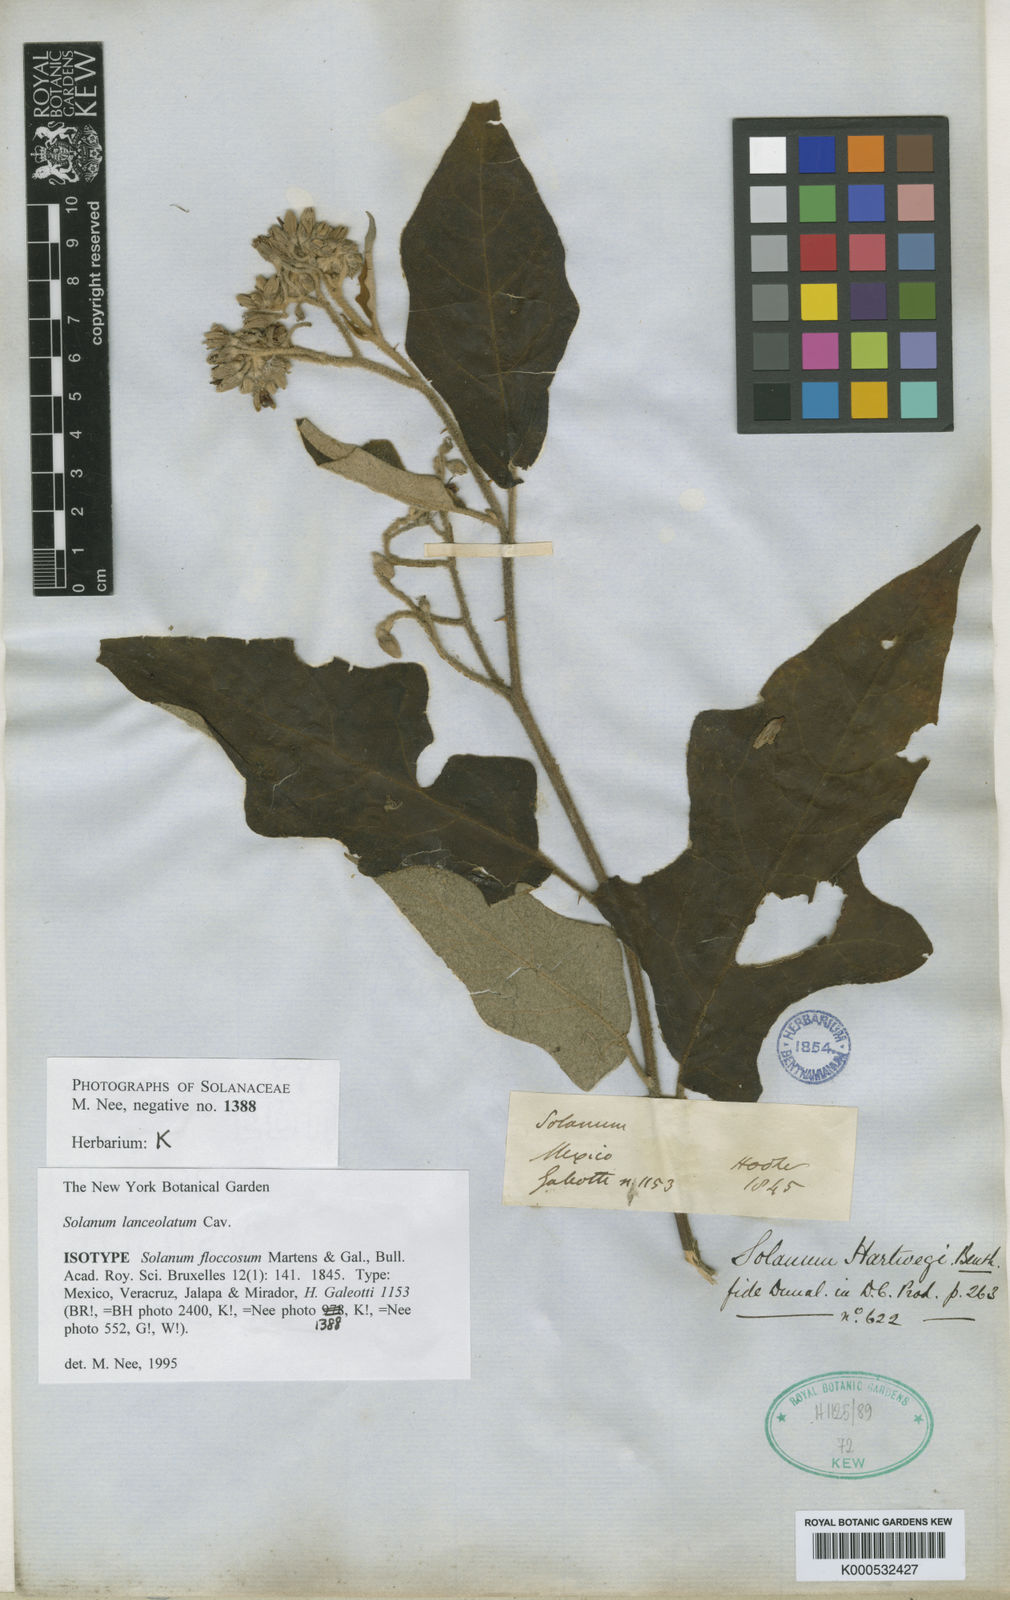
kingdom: Plantae
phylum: Tracheophyta
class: Magnoliopsida
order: Solanales
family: Solanaceae
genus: Solanum
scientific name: Solanum lanceolatum
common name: Orangeberry nightshade
